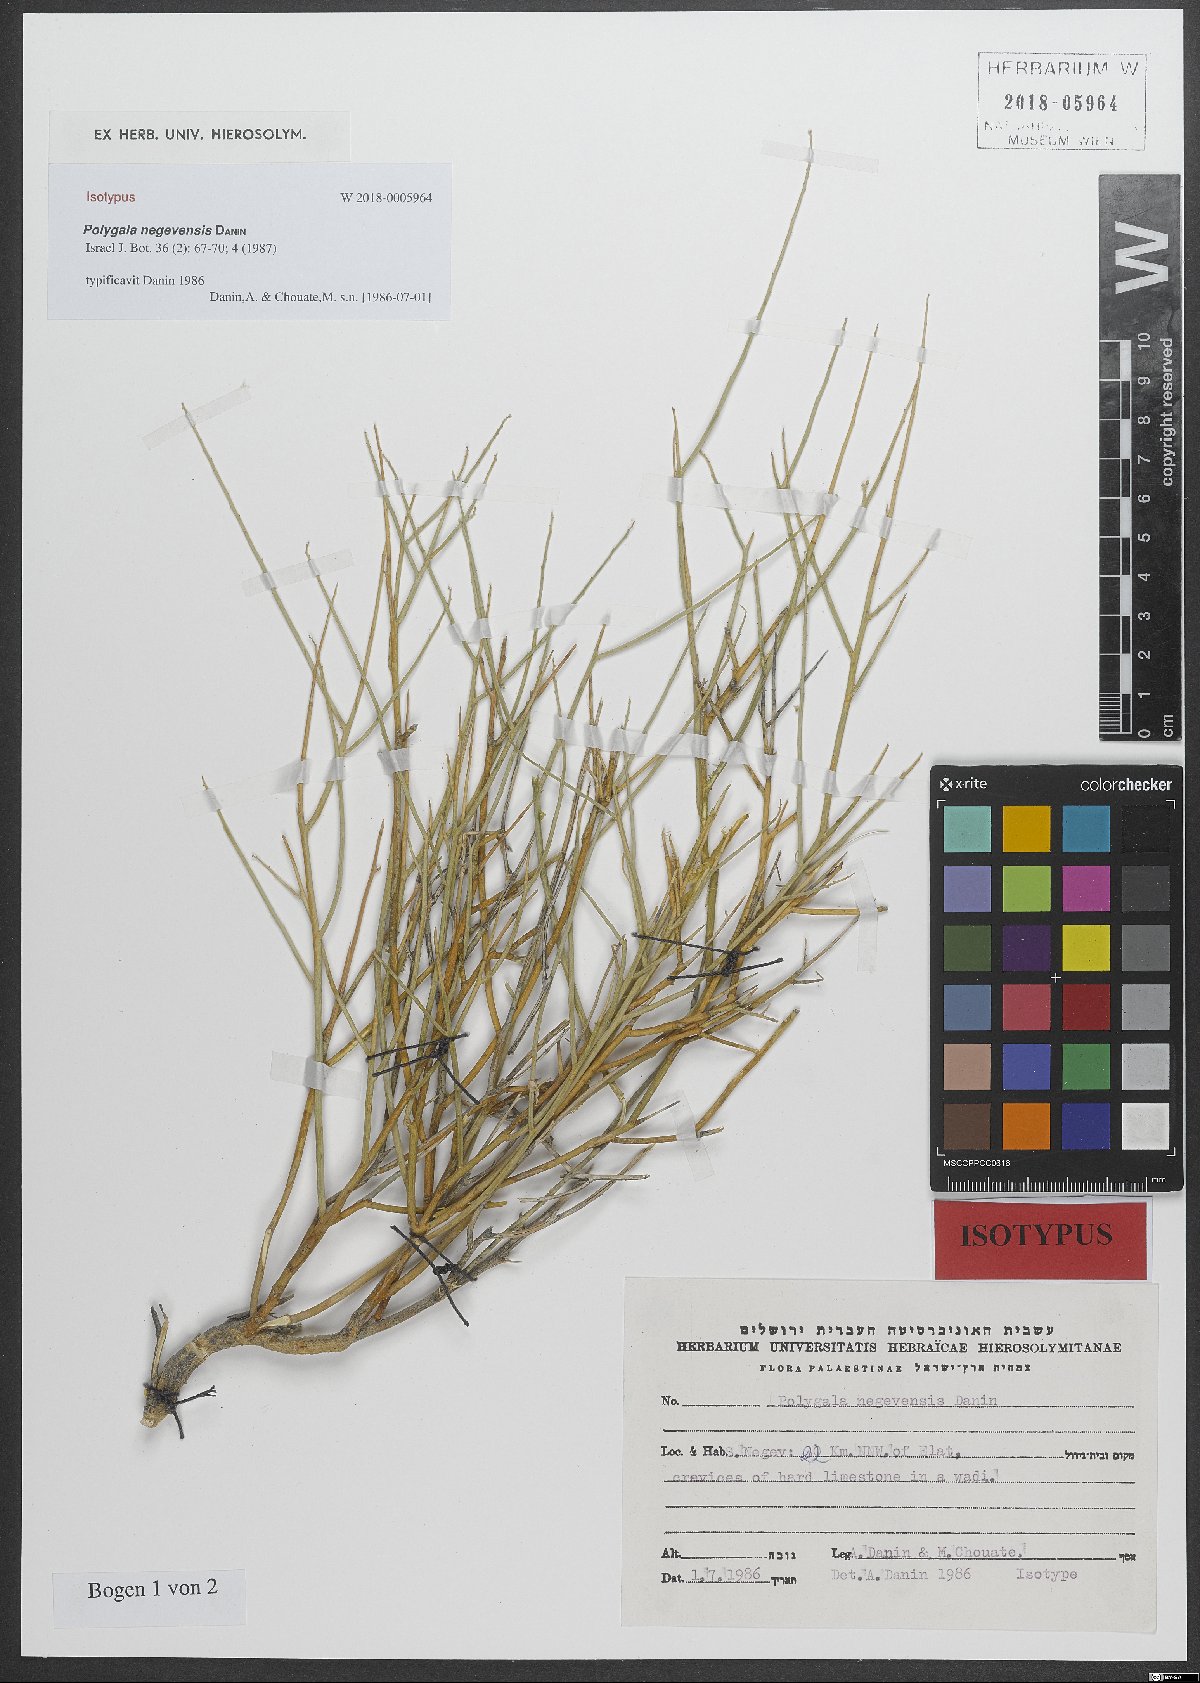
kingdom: Plantae
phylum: Tracheophyta
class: Magnoliopsida
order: Fabales
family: Polygalaceae
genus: Polygala
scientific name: Polygala sinaica
